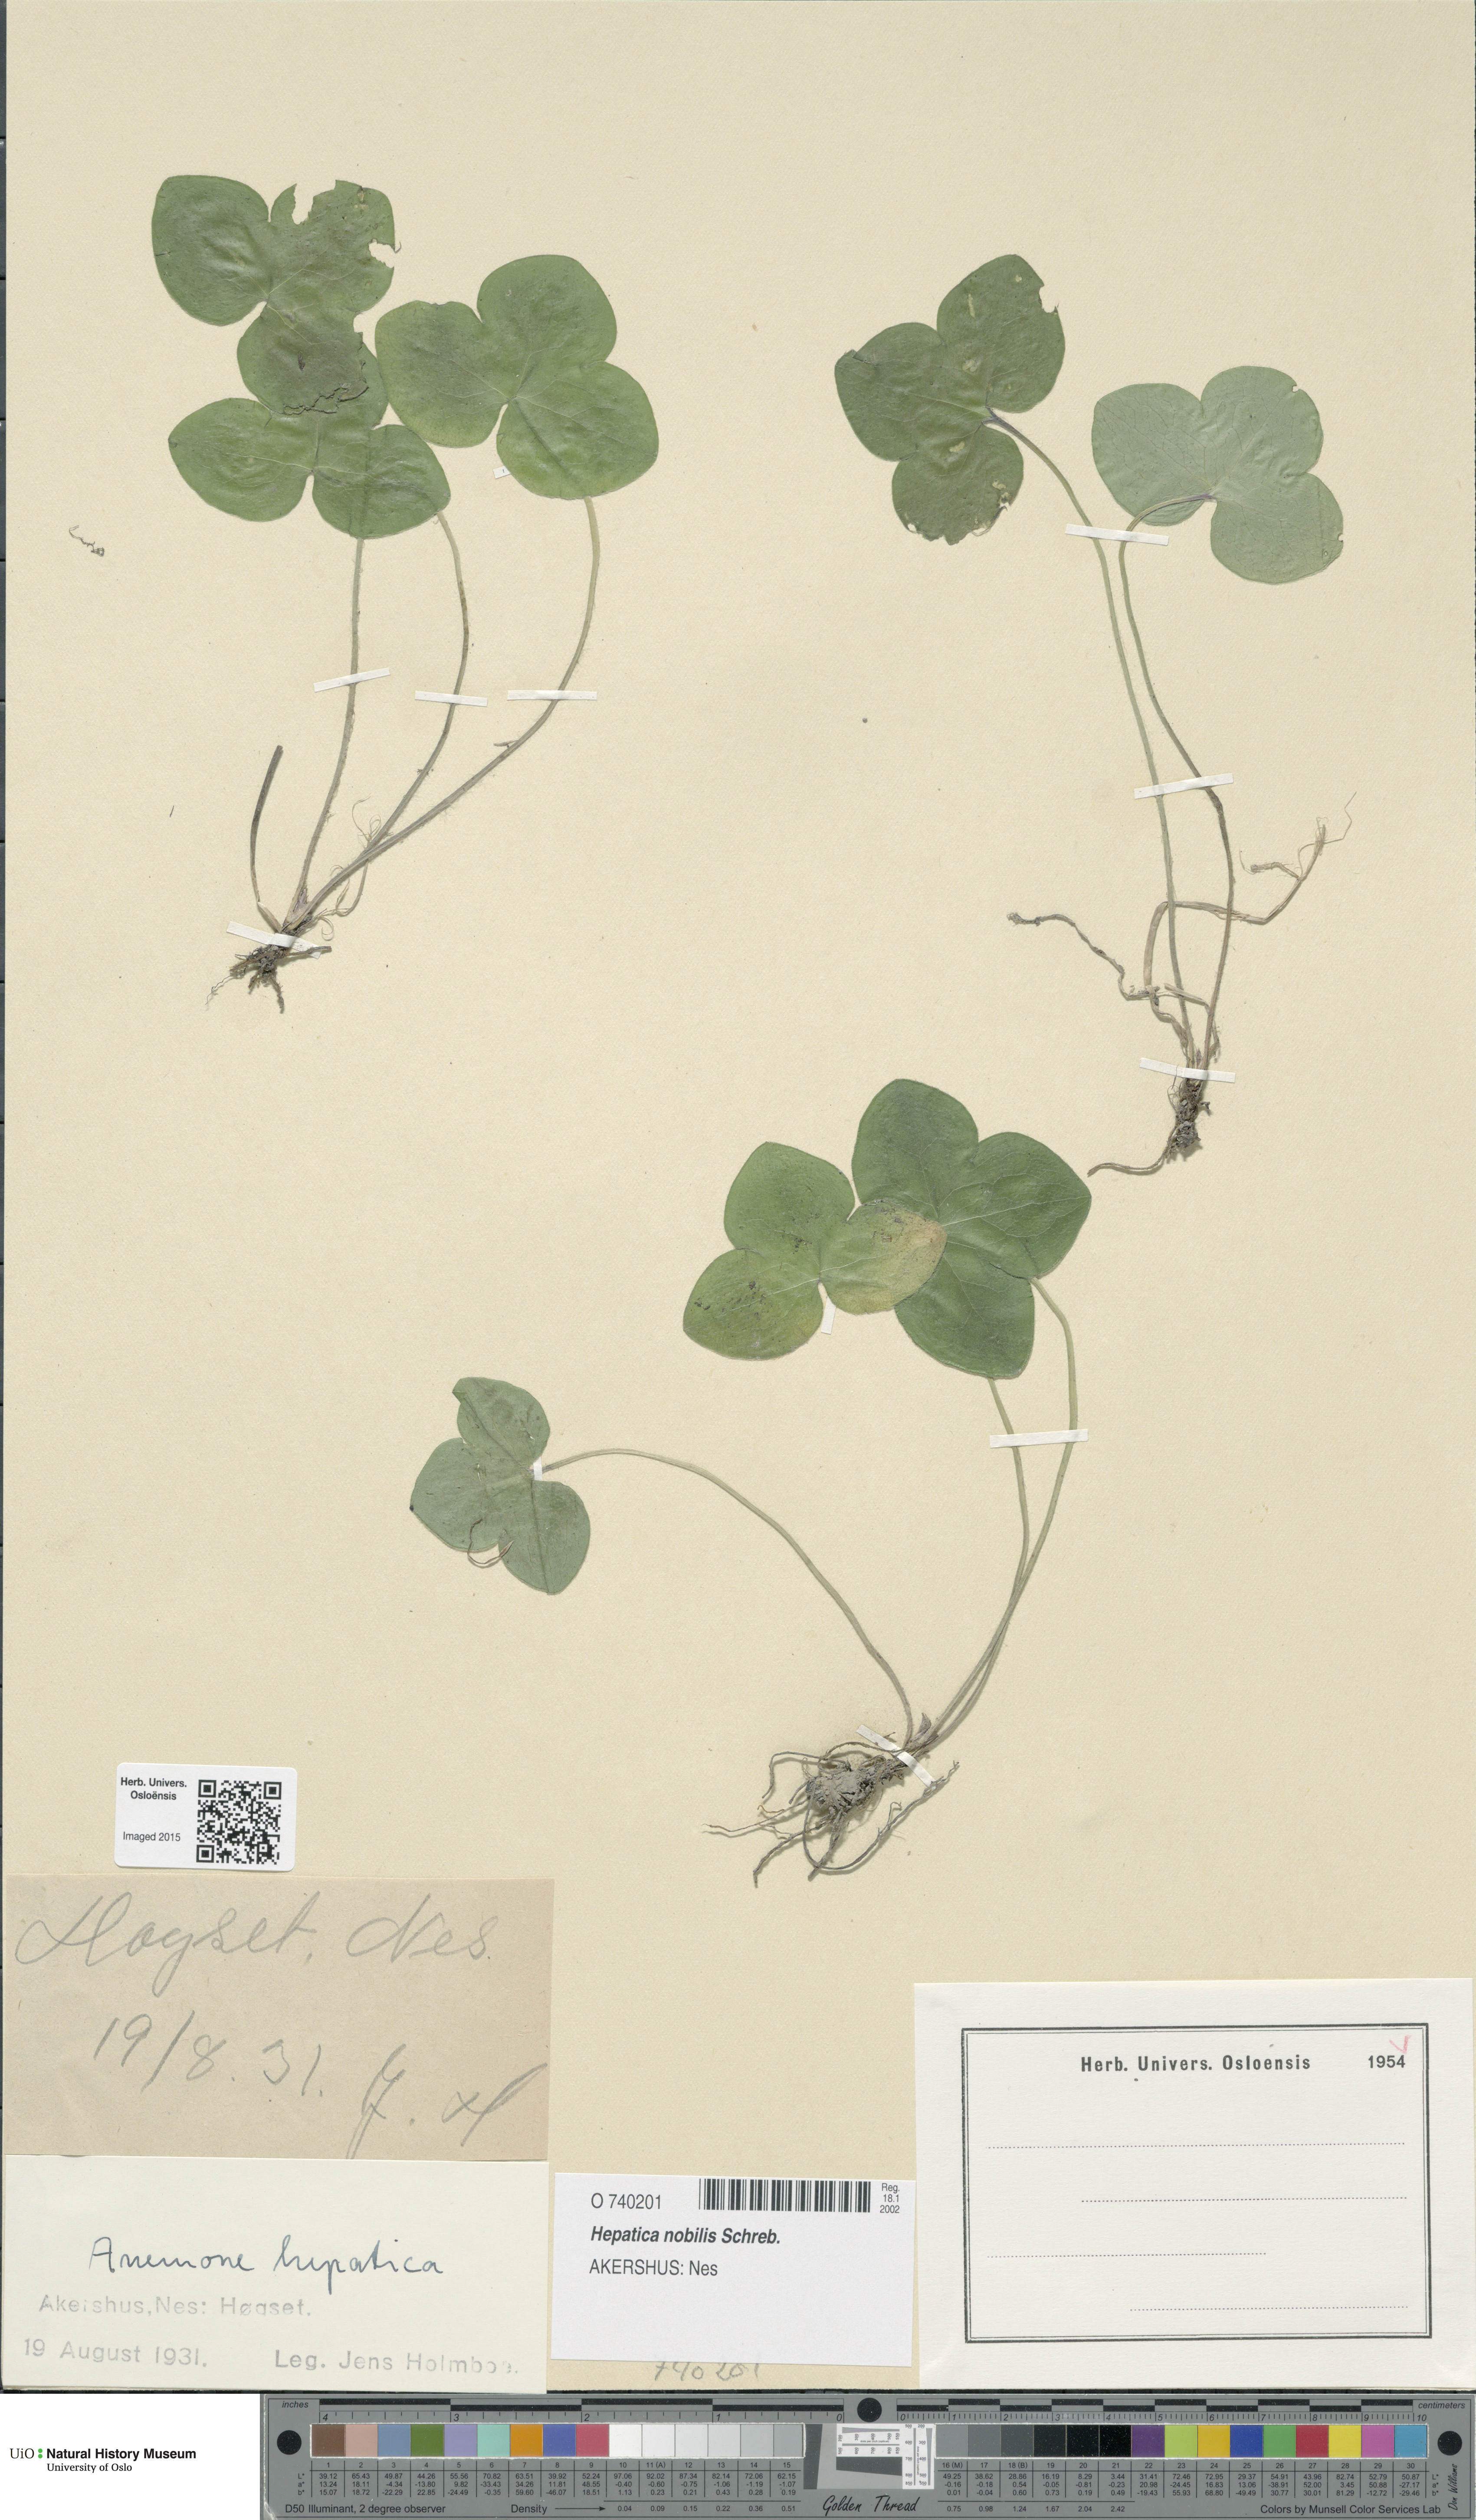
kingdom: Plantae
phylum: Tracheophyta
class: Magnoliopsida
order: Ranunculales
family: Ranunculaceae
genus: Hepatica
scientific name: Hepatica nobilis
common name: Liverleaf
